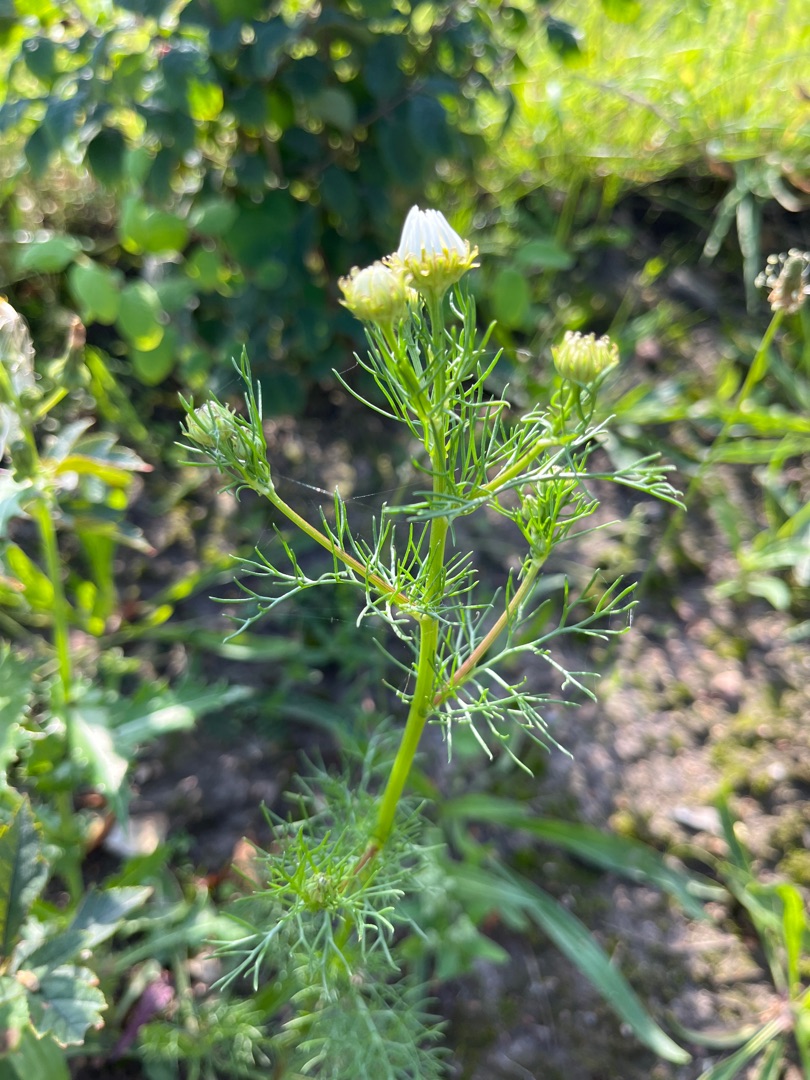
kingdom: Plantae
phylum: Tracheophyta
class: Magnoliopsida
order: Asterales
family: Asteraceae
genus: Tripleurospermum
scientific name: Tripleurospermum inodorum
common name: Lugtløs kamille
